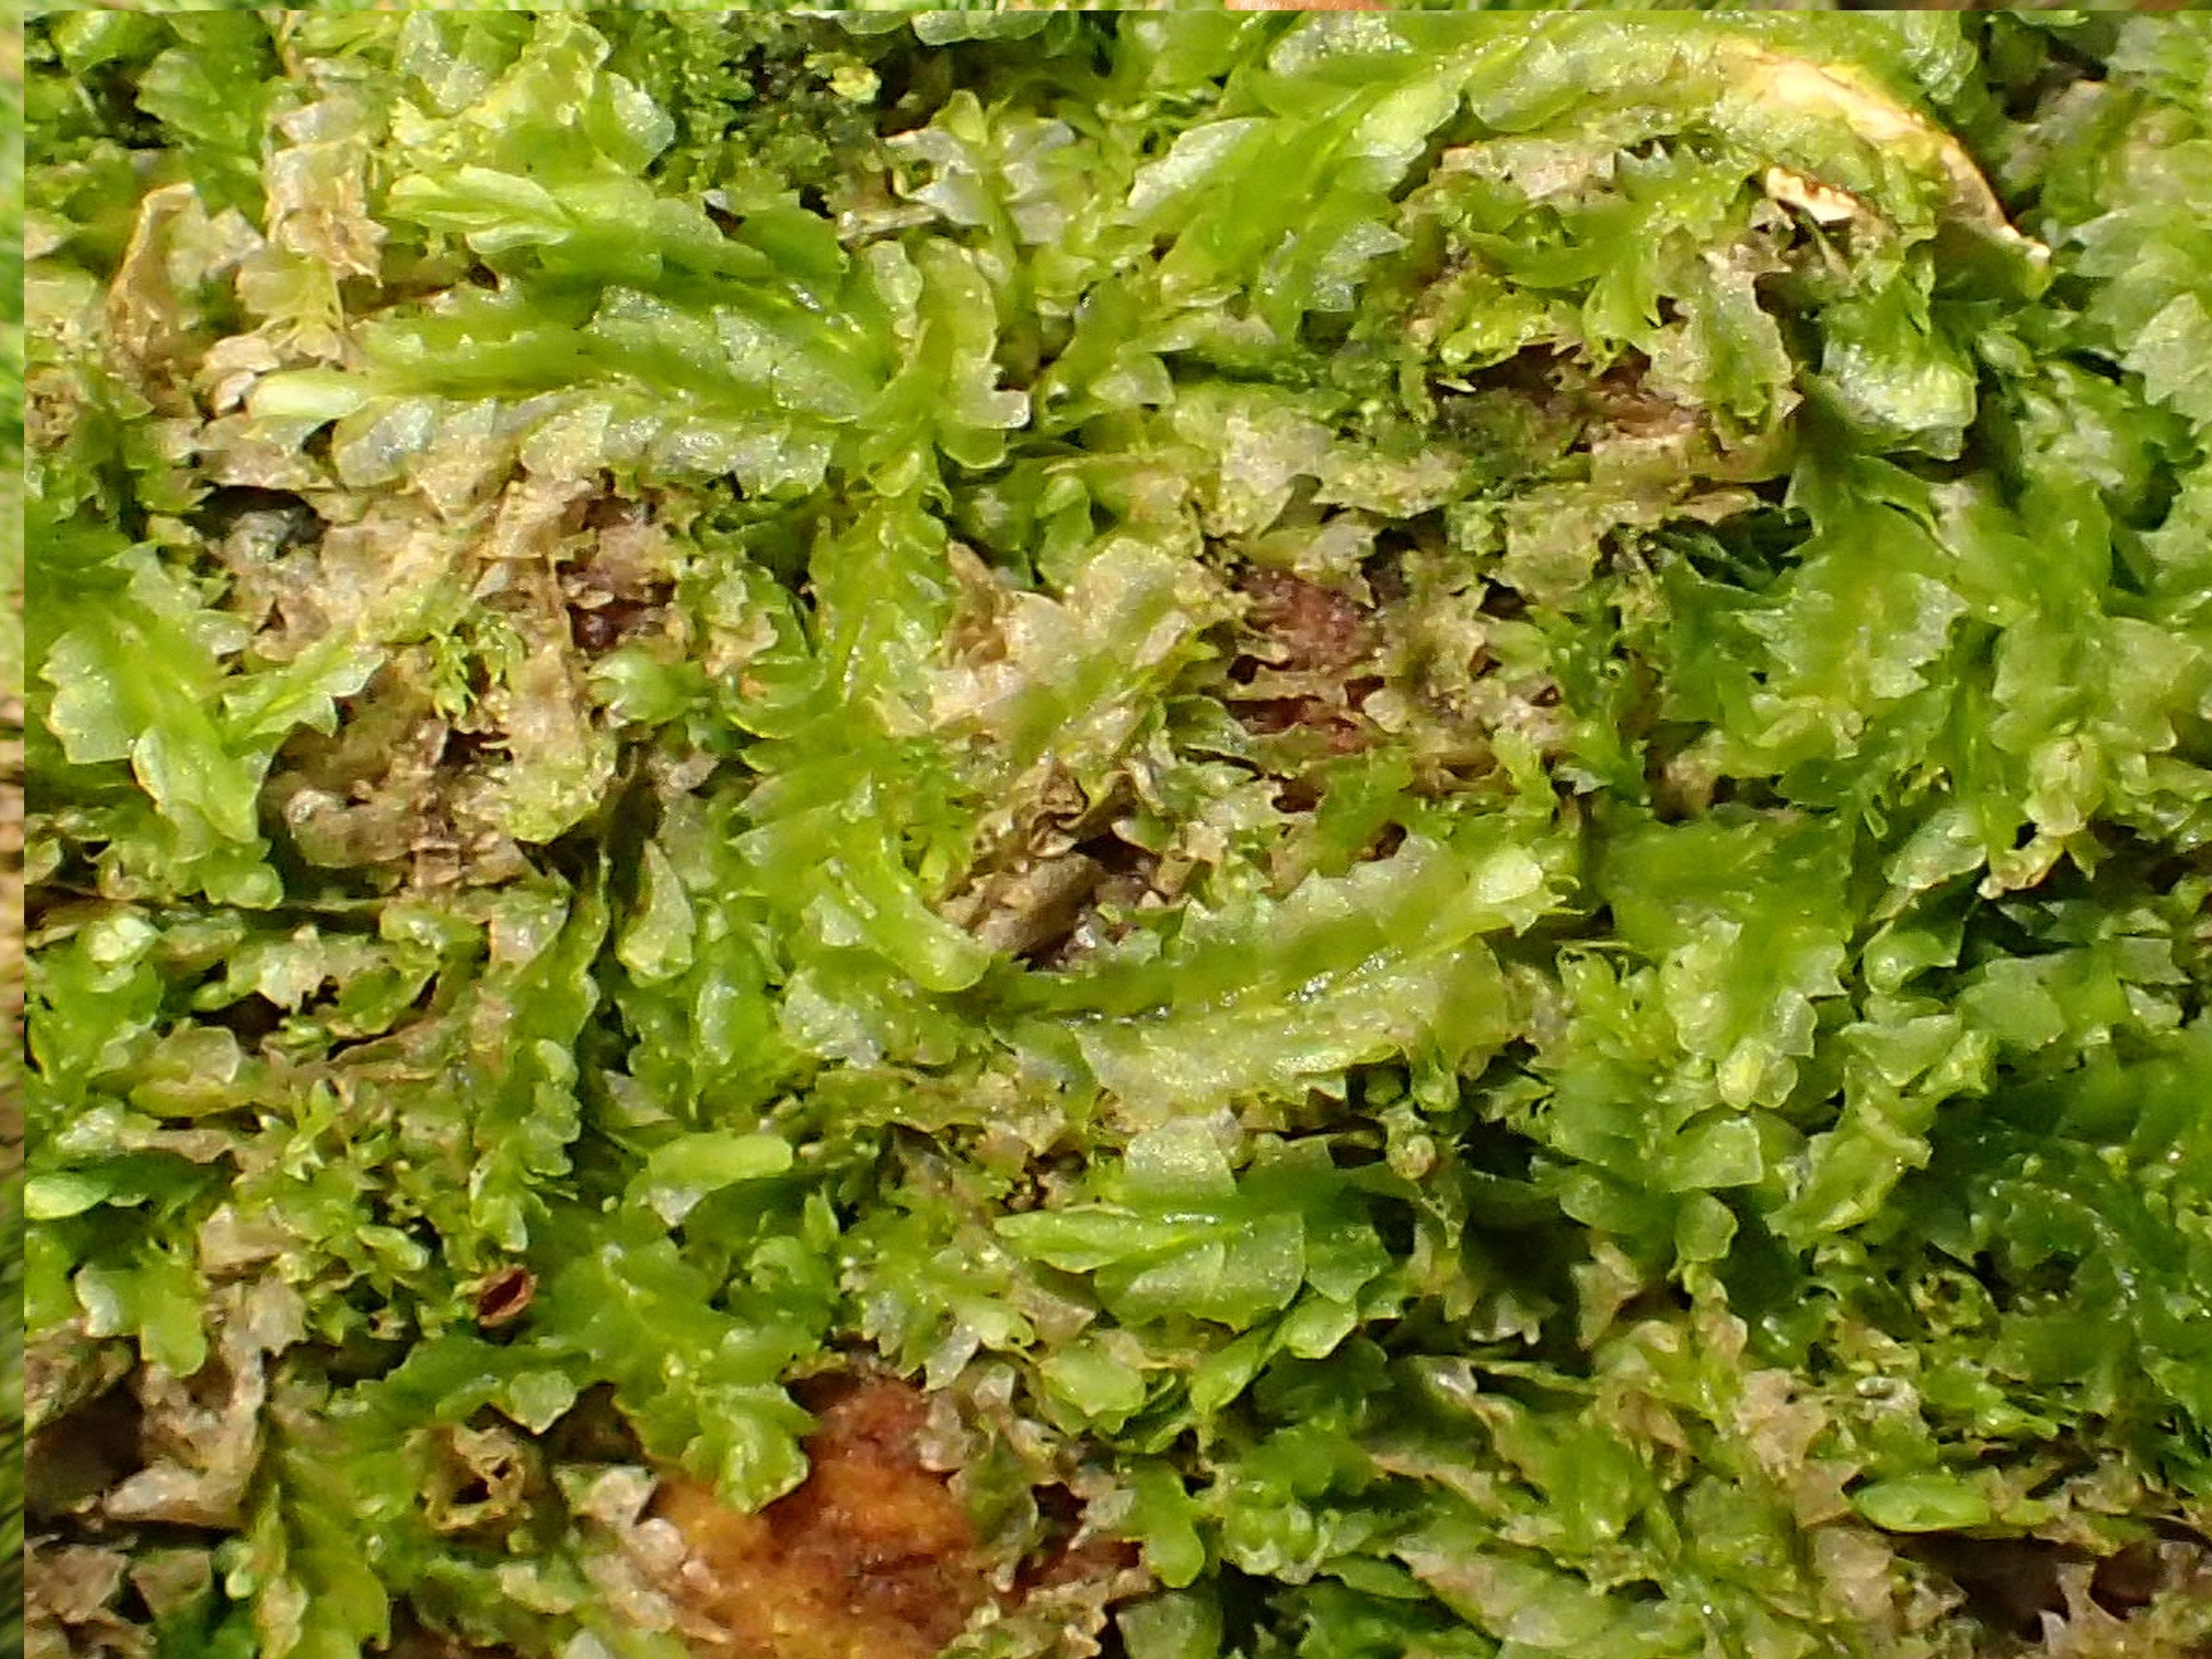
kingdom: Plantae
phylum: Marchantiophyta
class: Jungermanniopsida
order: Jungermanniales
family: Lophocoleaceae
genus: Lophocolea
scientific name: Lophocolea heterophylla
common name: Forskelligbladet kamsvøb
